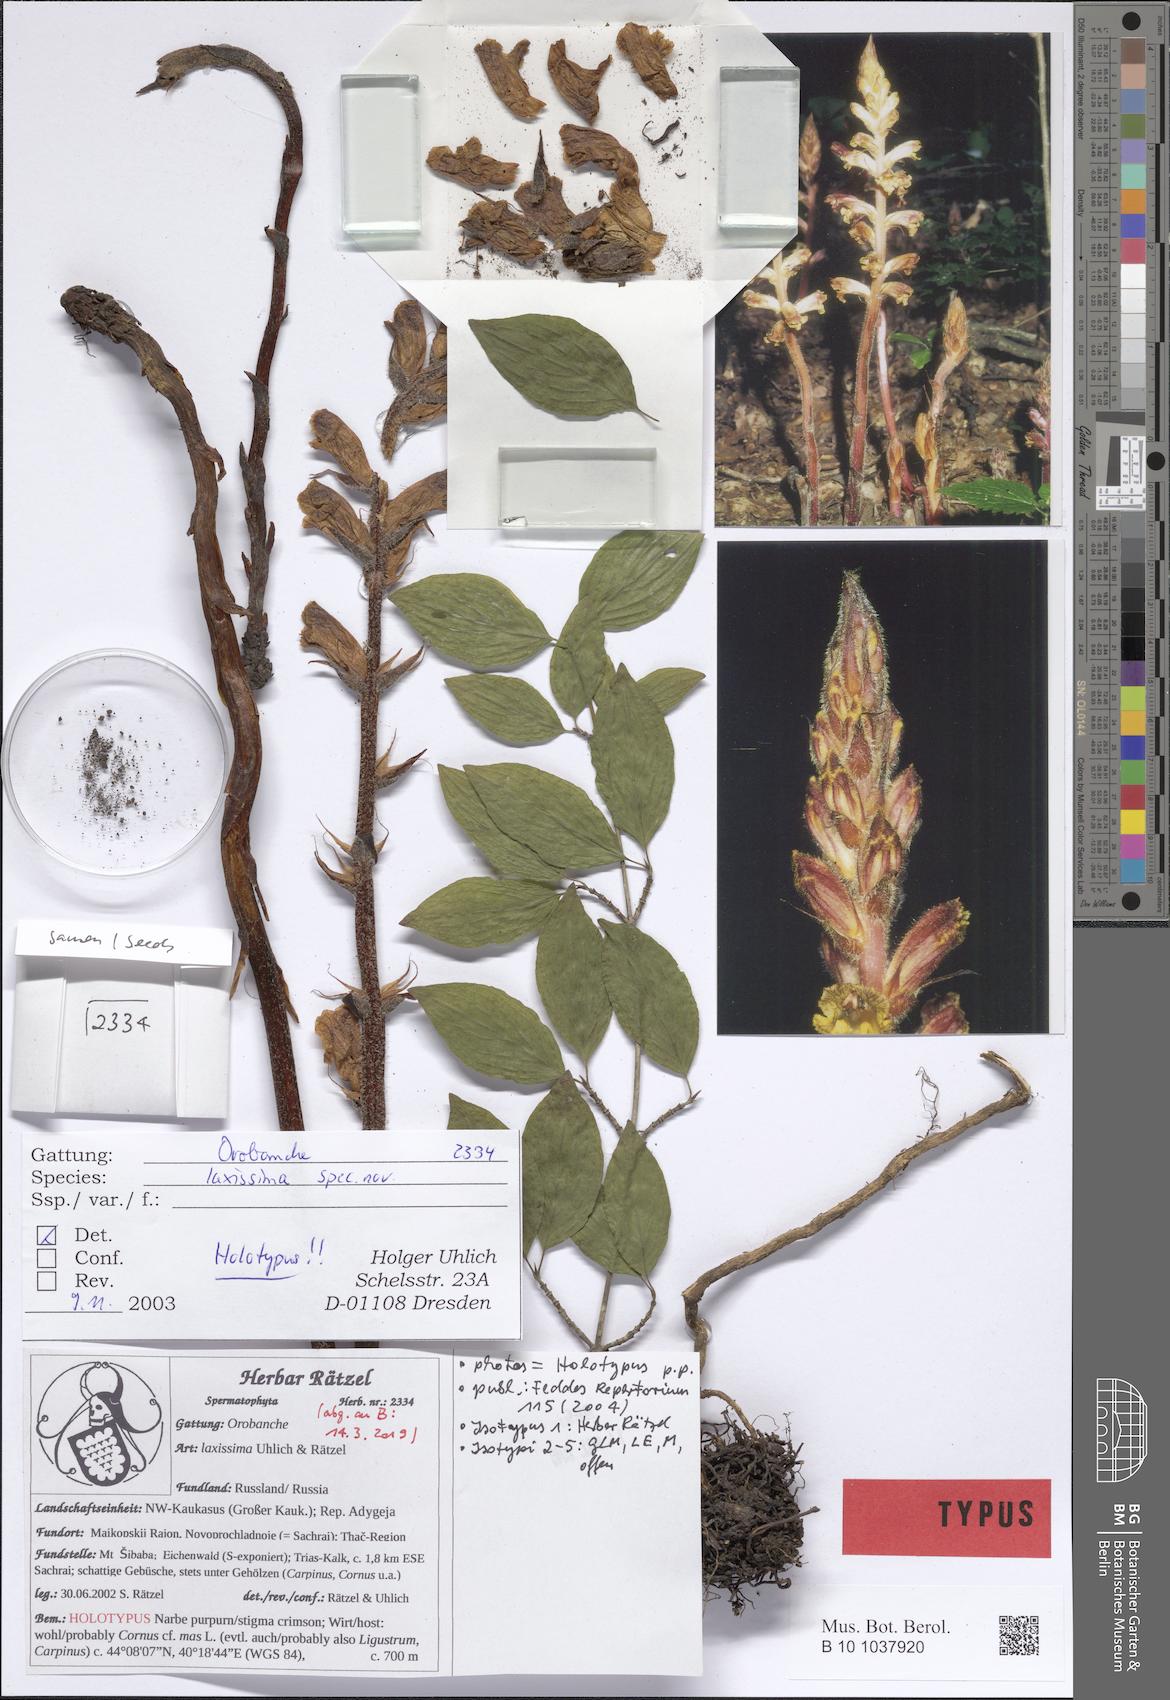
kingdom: Plantae
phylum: Tracheophyta
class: Magnoliopsida
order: Lamiales
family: Orobanchaceae
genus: Orobanche
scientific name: Orobanche laxissima
